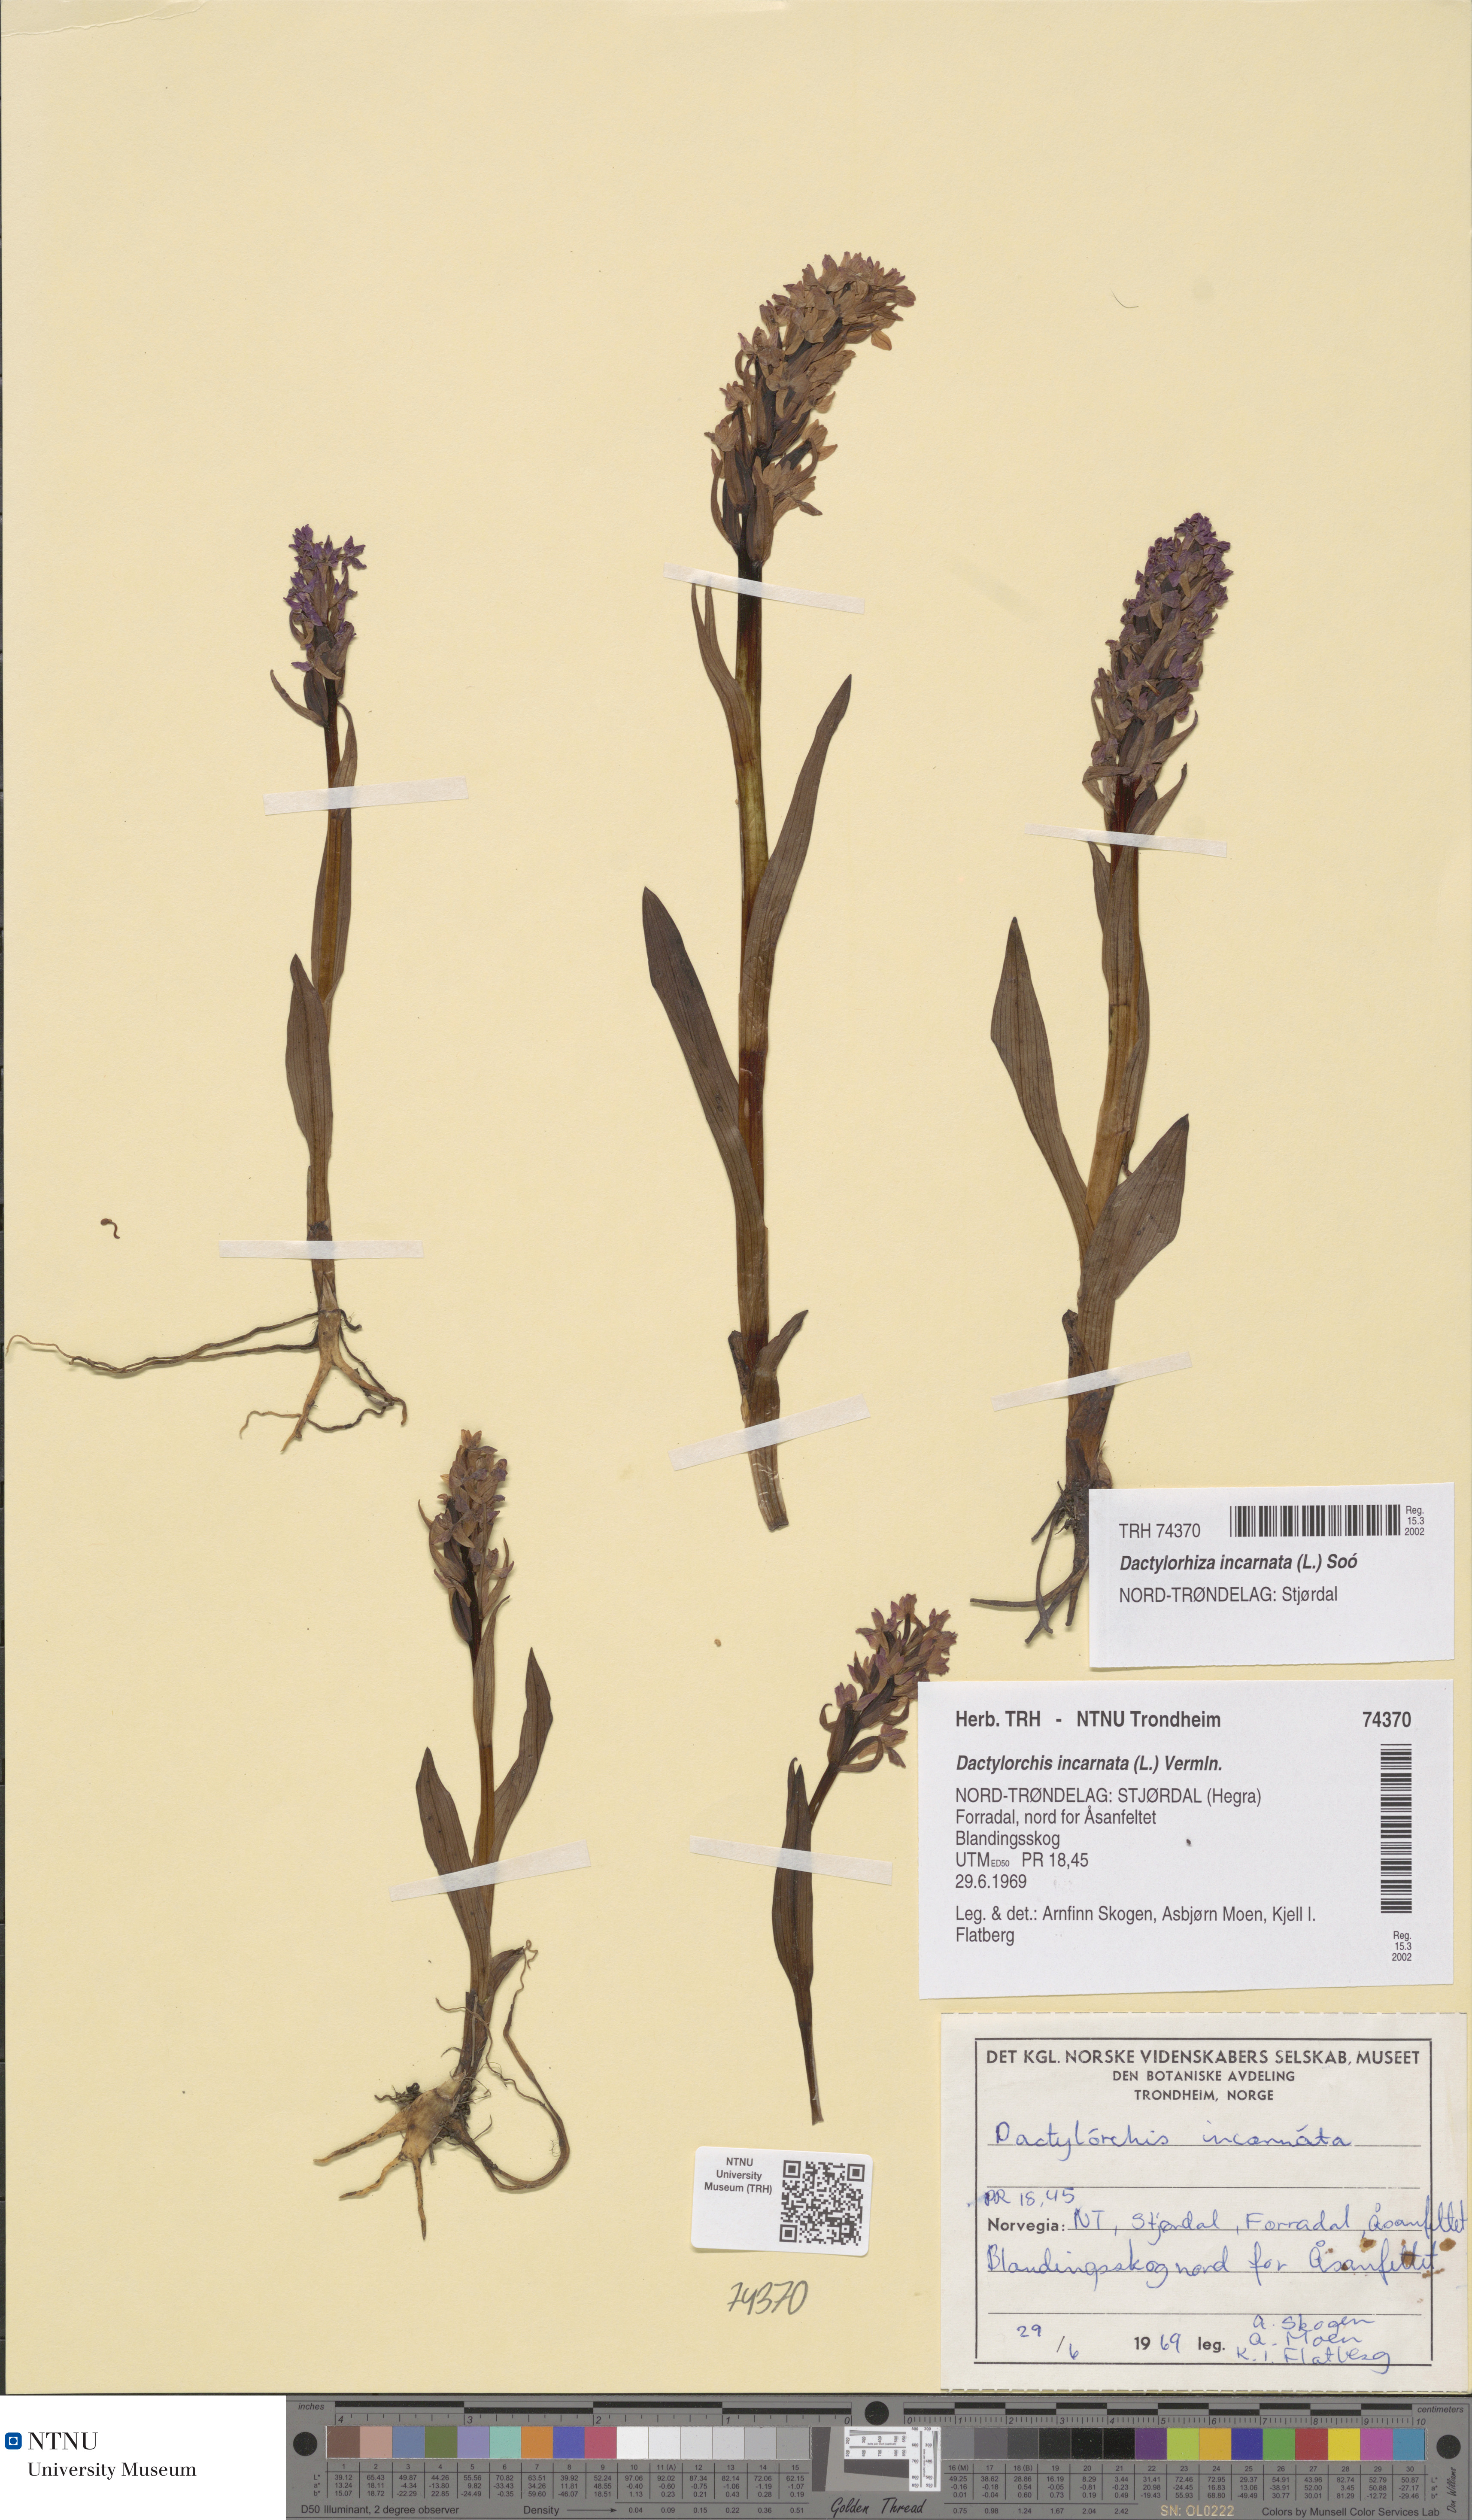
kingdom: Plantae
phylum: Tracheophyta
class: Liliopsida
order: Asparagales
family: Orchidaceae
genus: Dactylorhiza
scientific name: Dactylorhiza incarnata
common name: Early marsh-orchid
